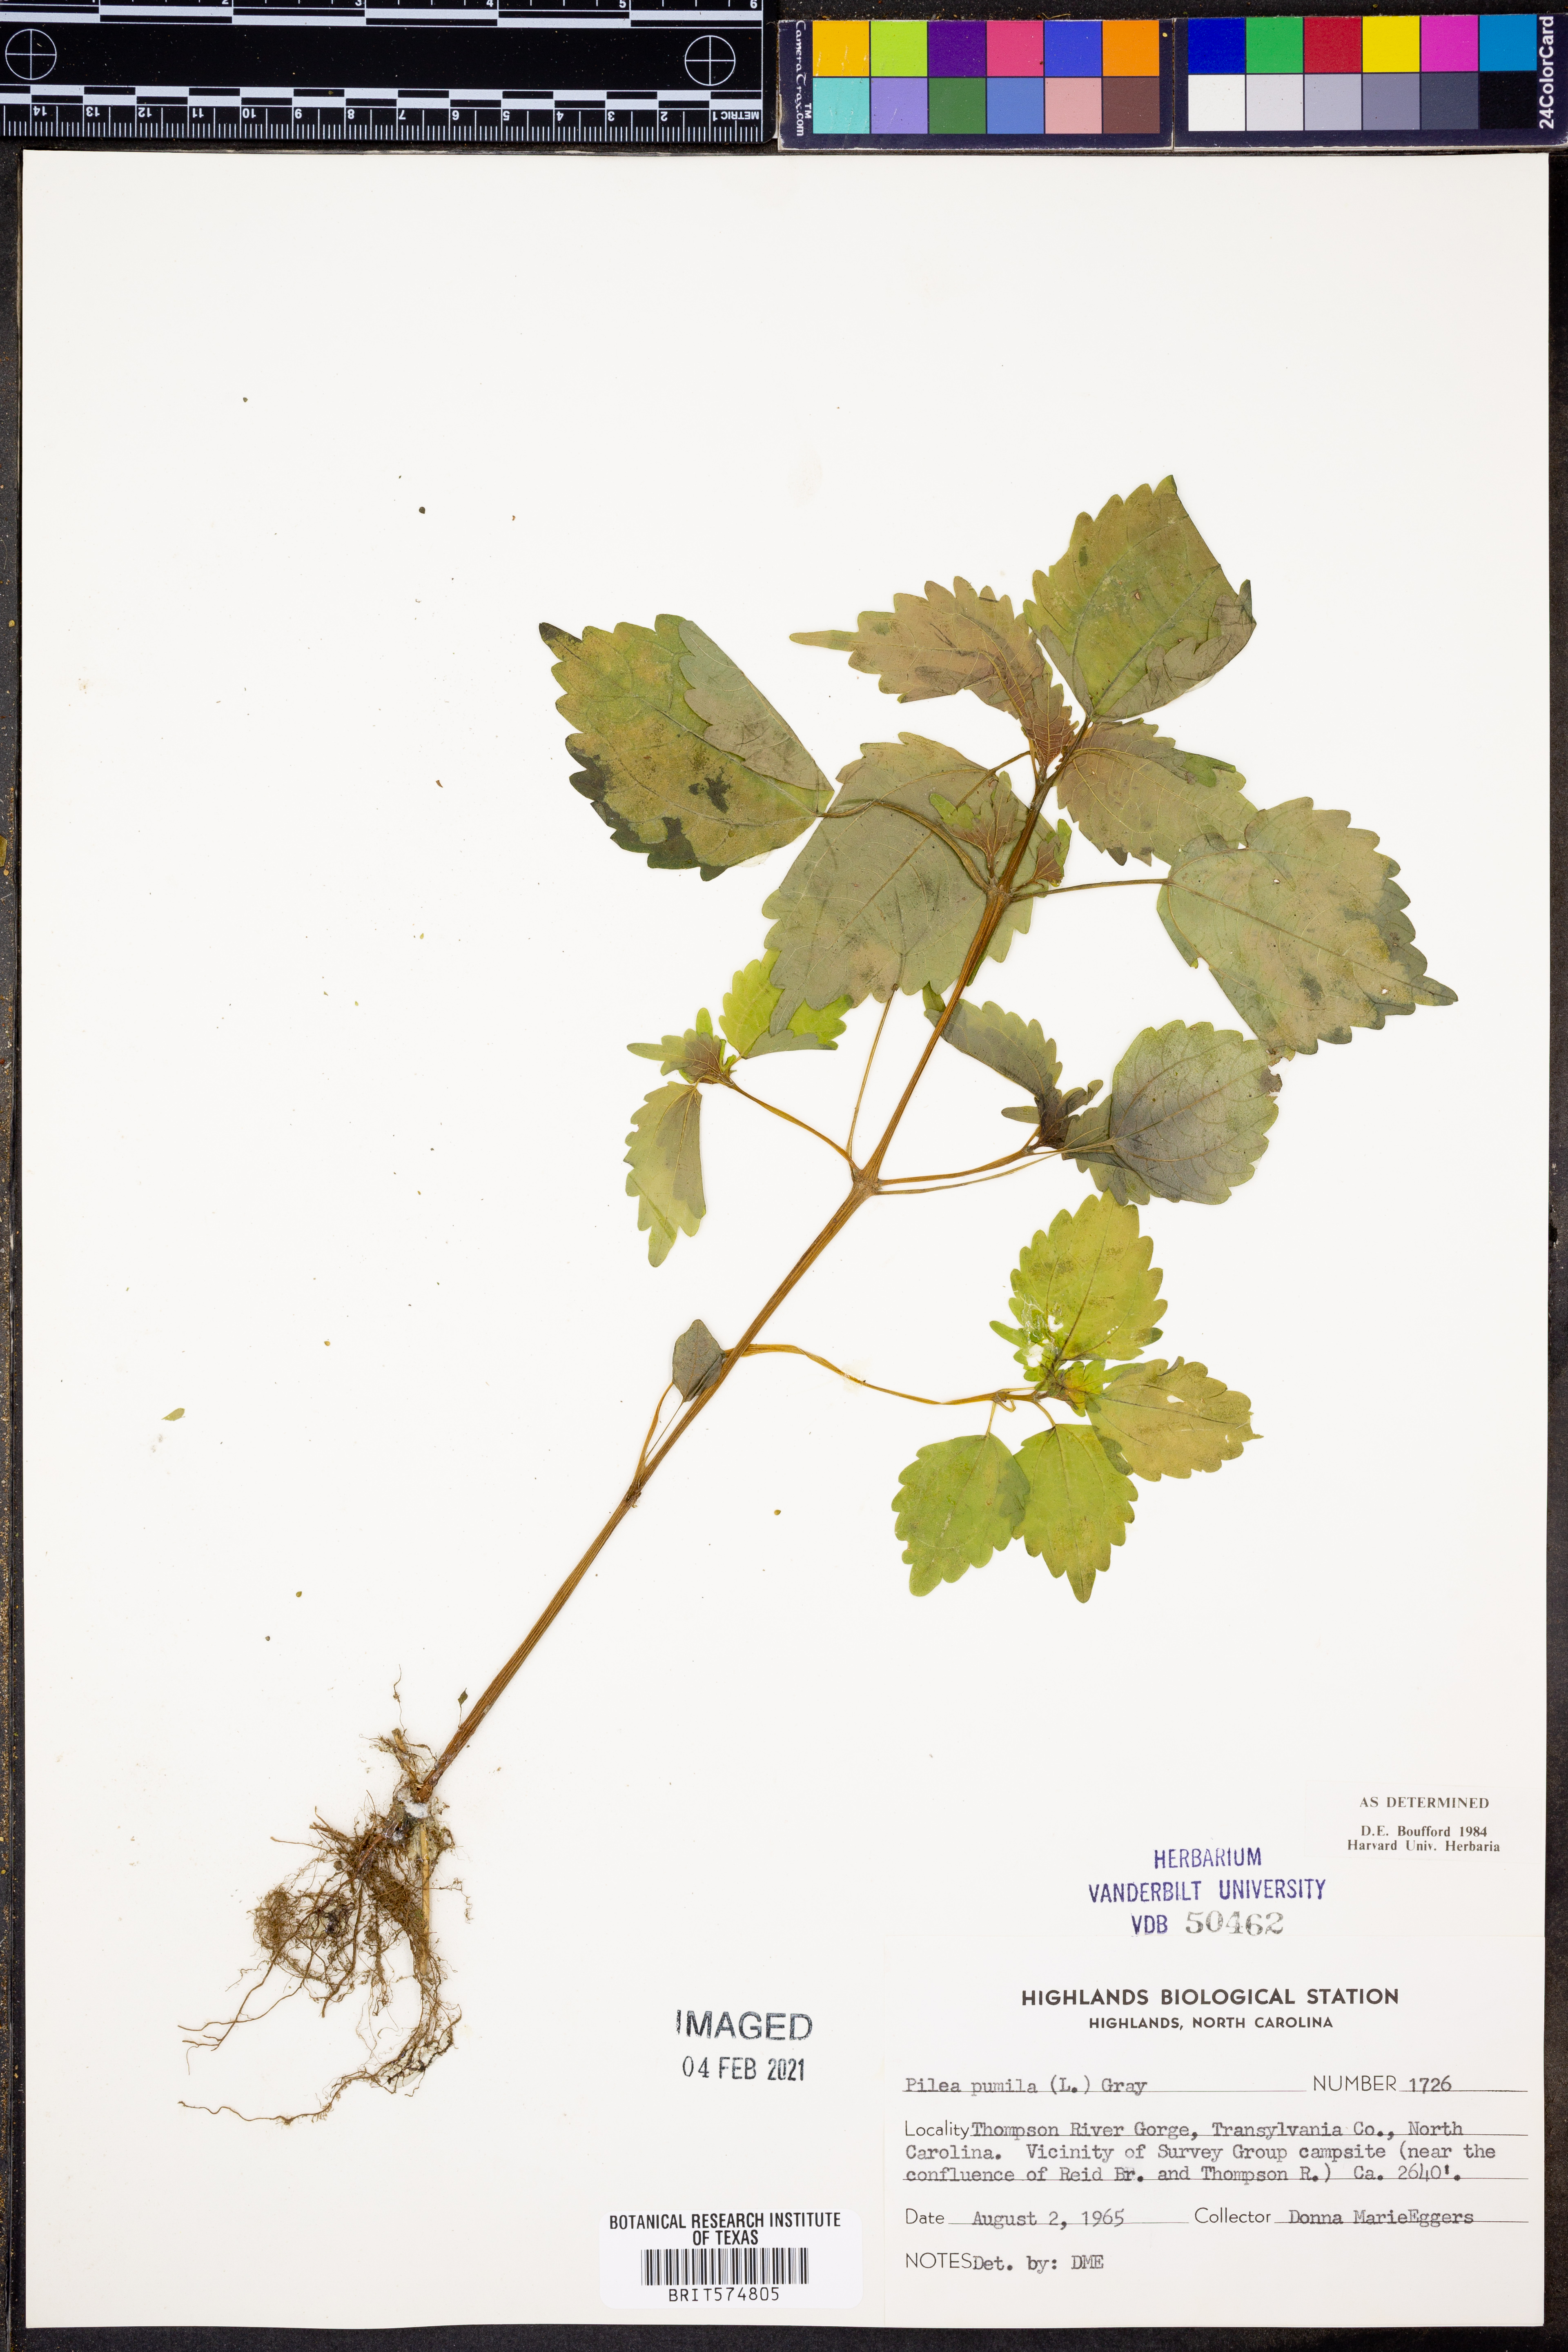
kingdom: Plantae
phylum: Tracheophyta
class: Magnoliopsida
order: Rosales
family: Urticaceae
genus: Pilea
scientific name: Pilea pumila
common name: Clearweed
